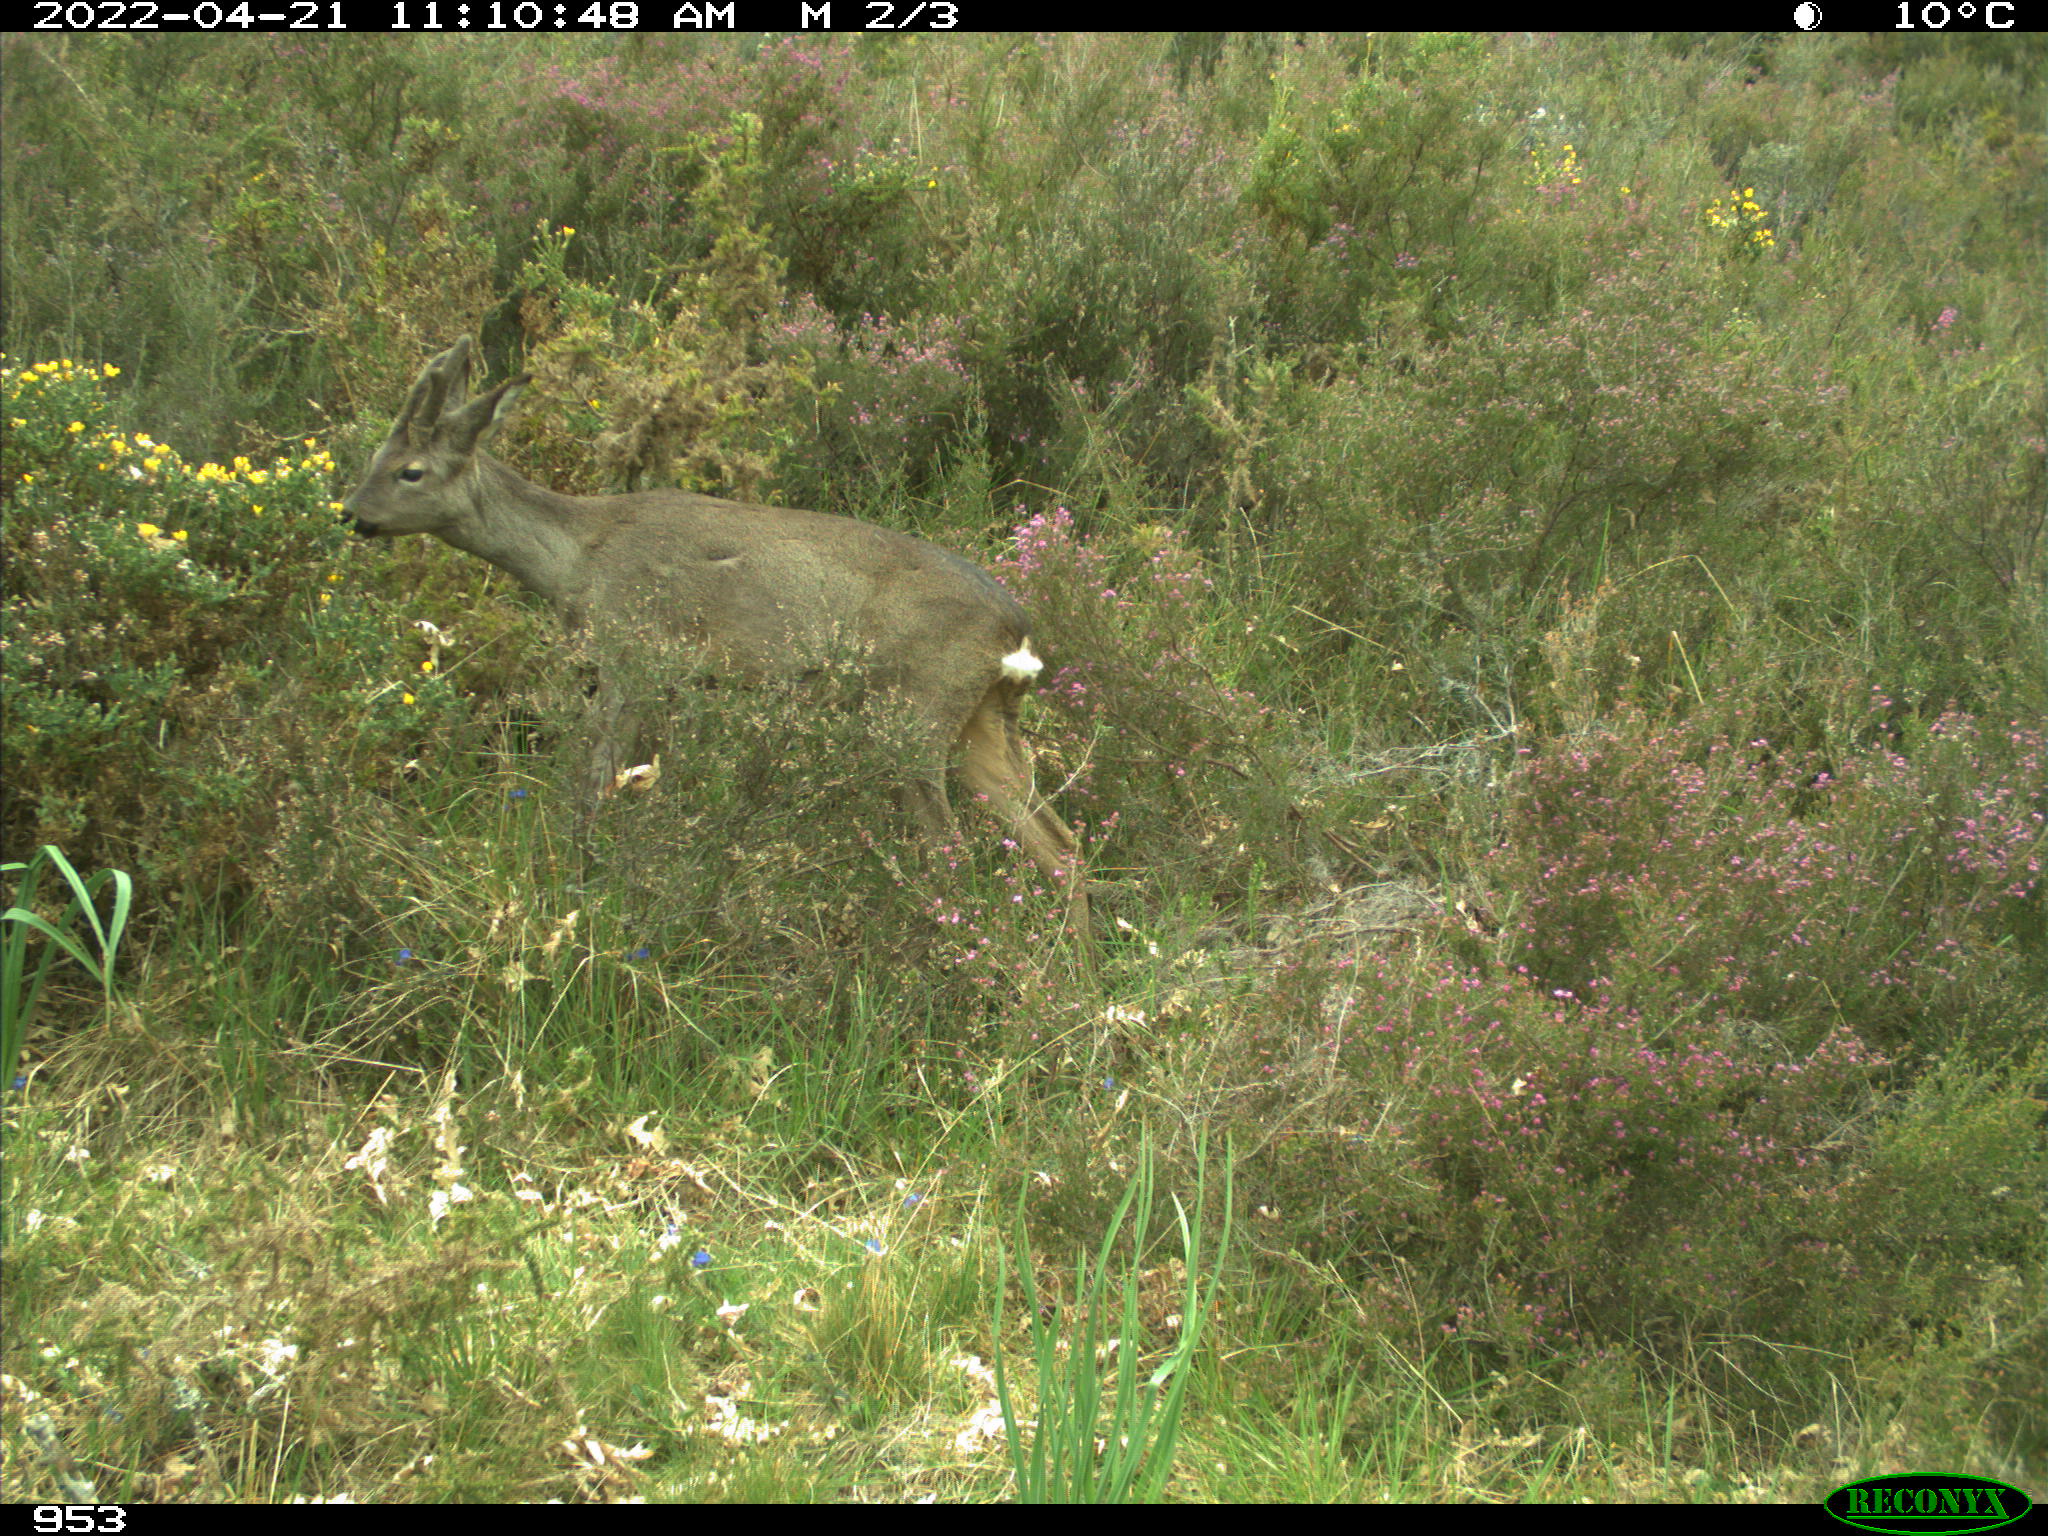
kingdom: Animalia
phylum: Chordata
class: Mammalia
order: Artiodactyla
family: Cervidae
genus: Capreolus
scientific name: Capreolus capreolus
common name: Western roe deer
